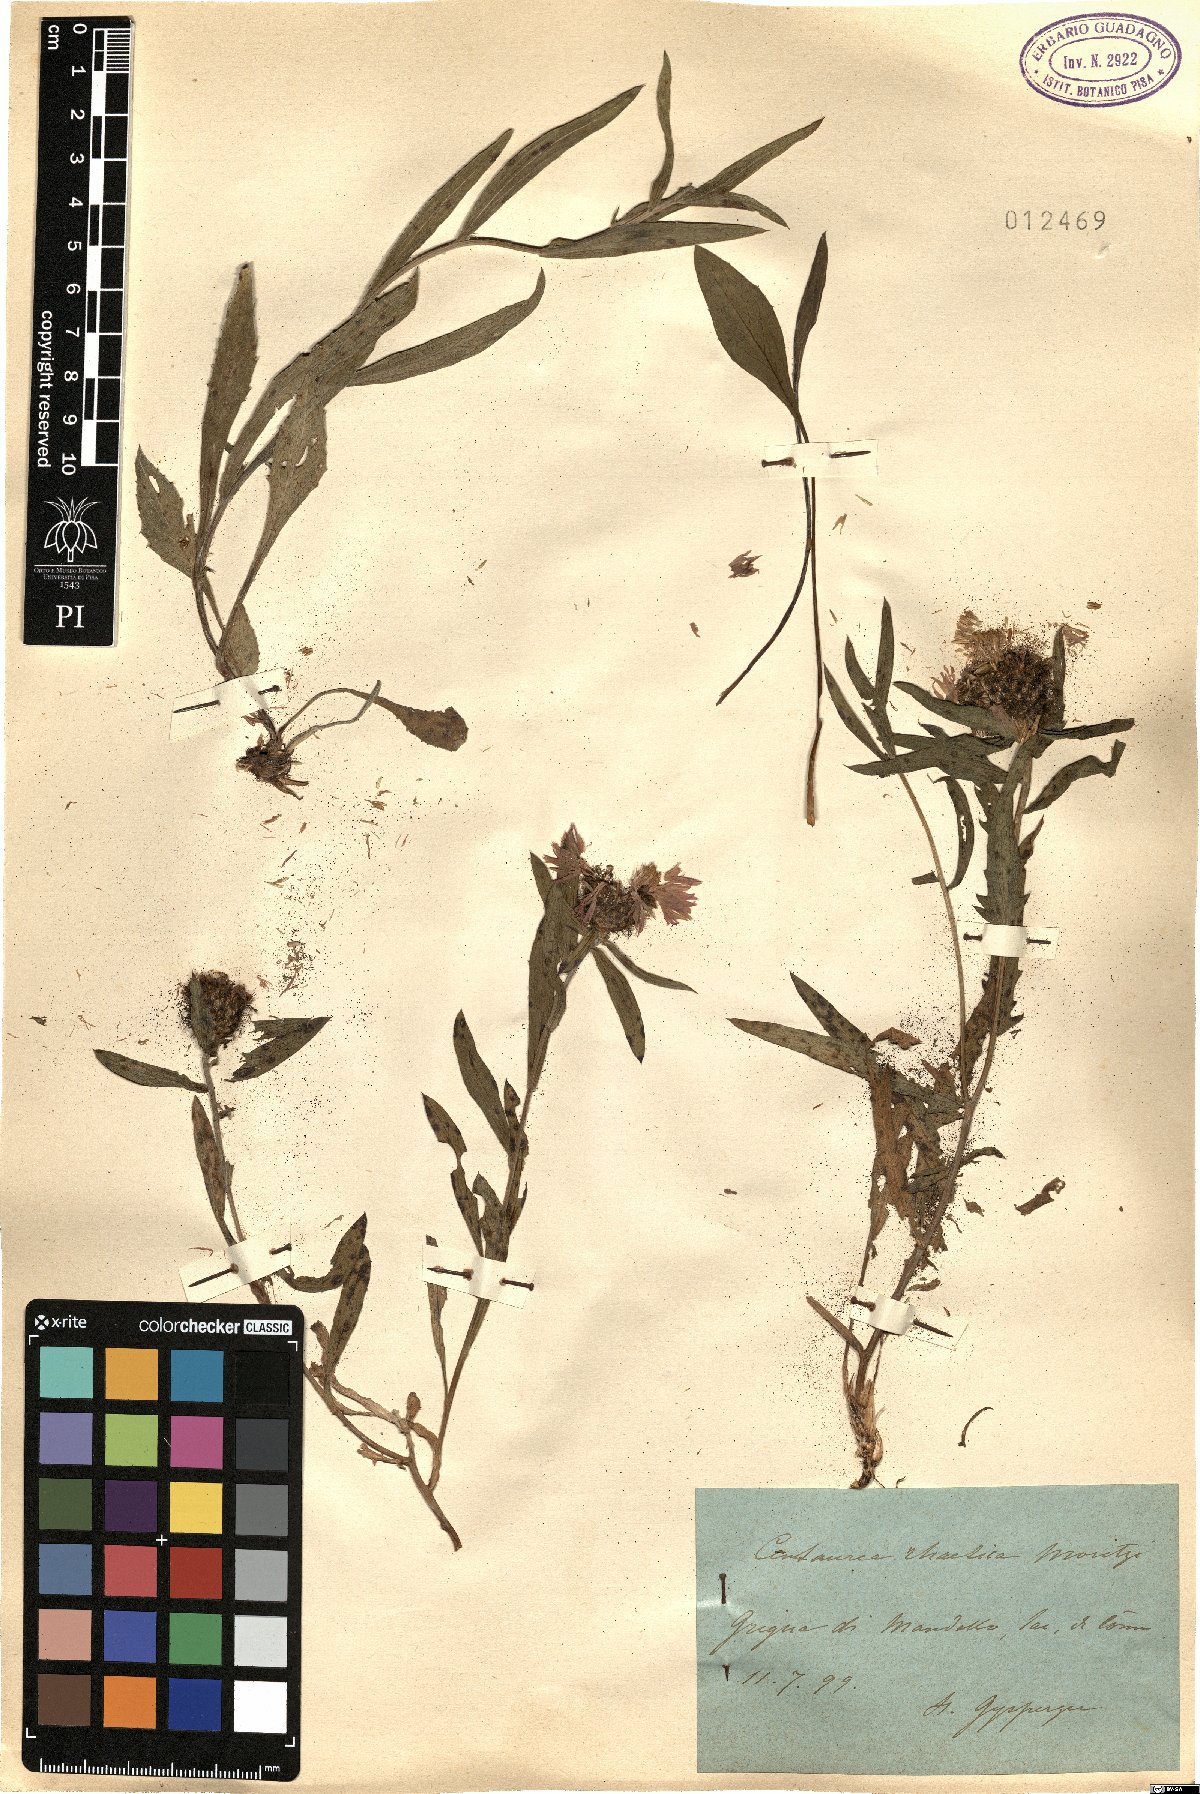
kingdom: Plantae
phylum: Tracheophyta
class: Magnoliopsida
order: Asterales
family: Asteraceae
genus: Centaurea
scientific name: Centaurea rhaetica
